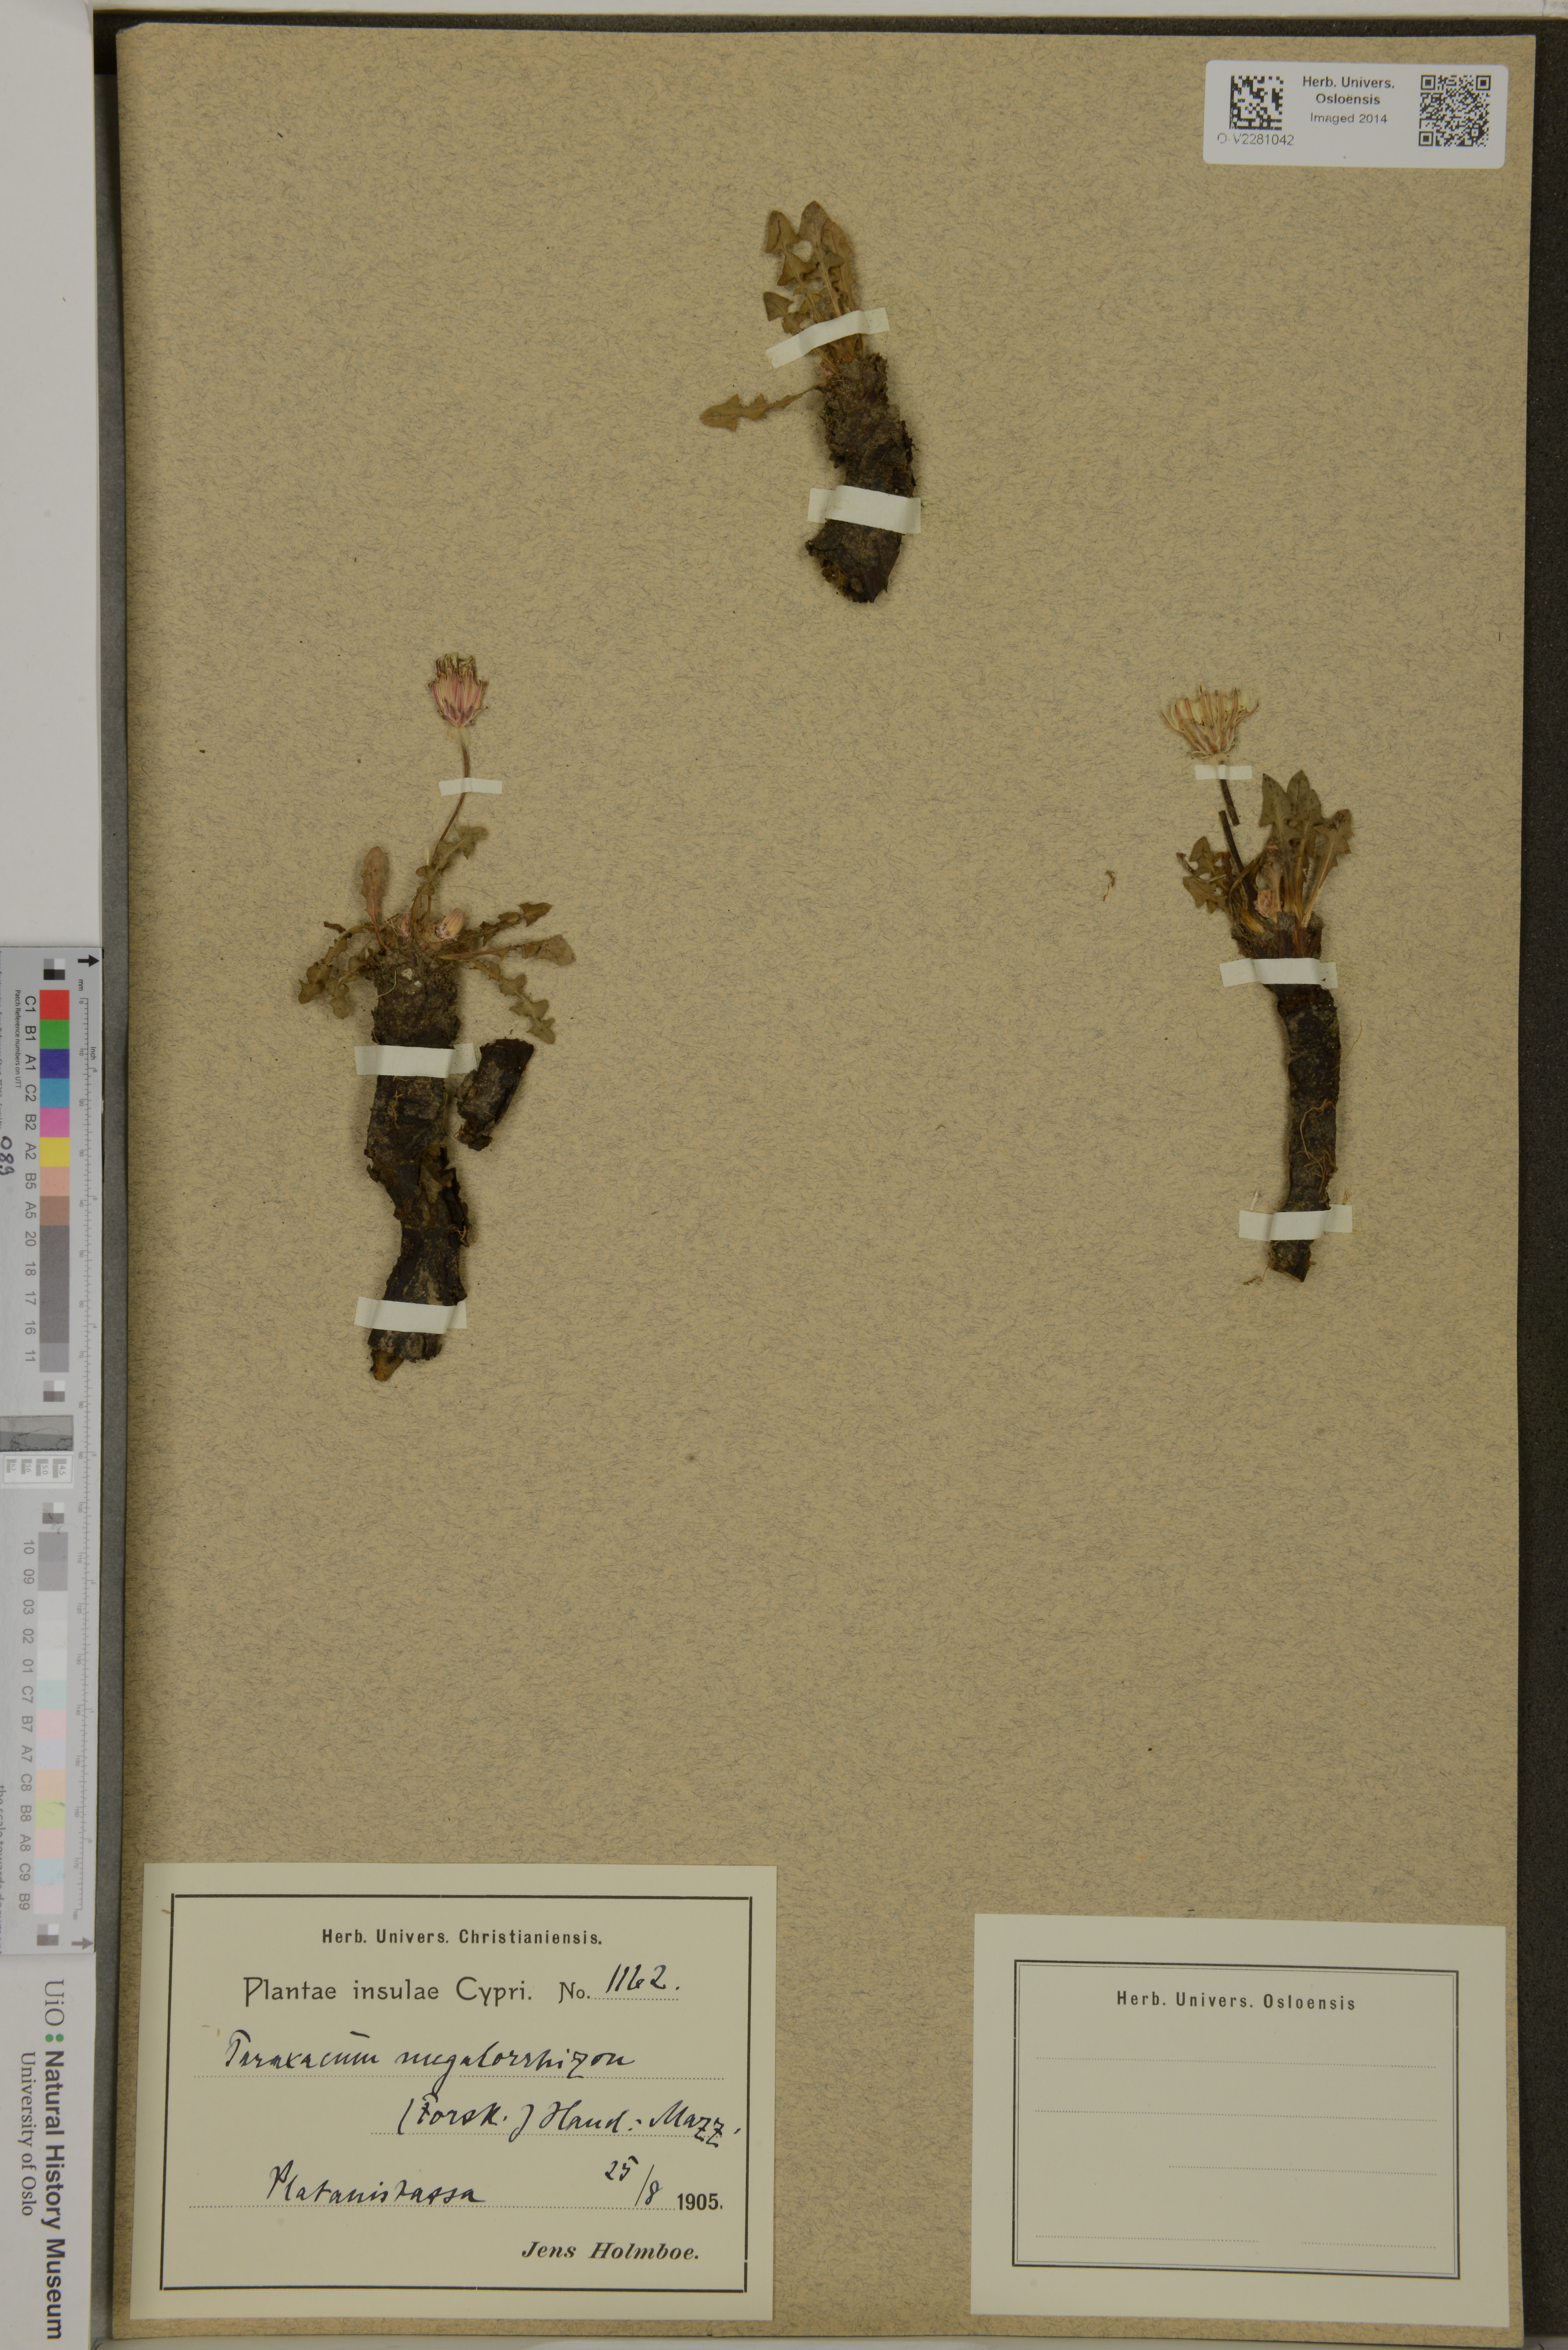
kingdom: Plantae
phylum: Tracheophyta
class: Magnoliopsida
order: Asterales
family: Asteraceae
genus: Taraxacum
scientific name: Taraxacum megalorhizon
